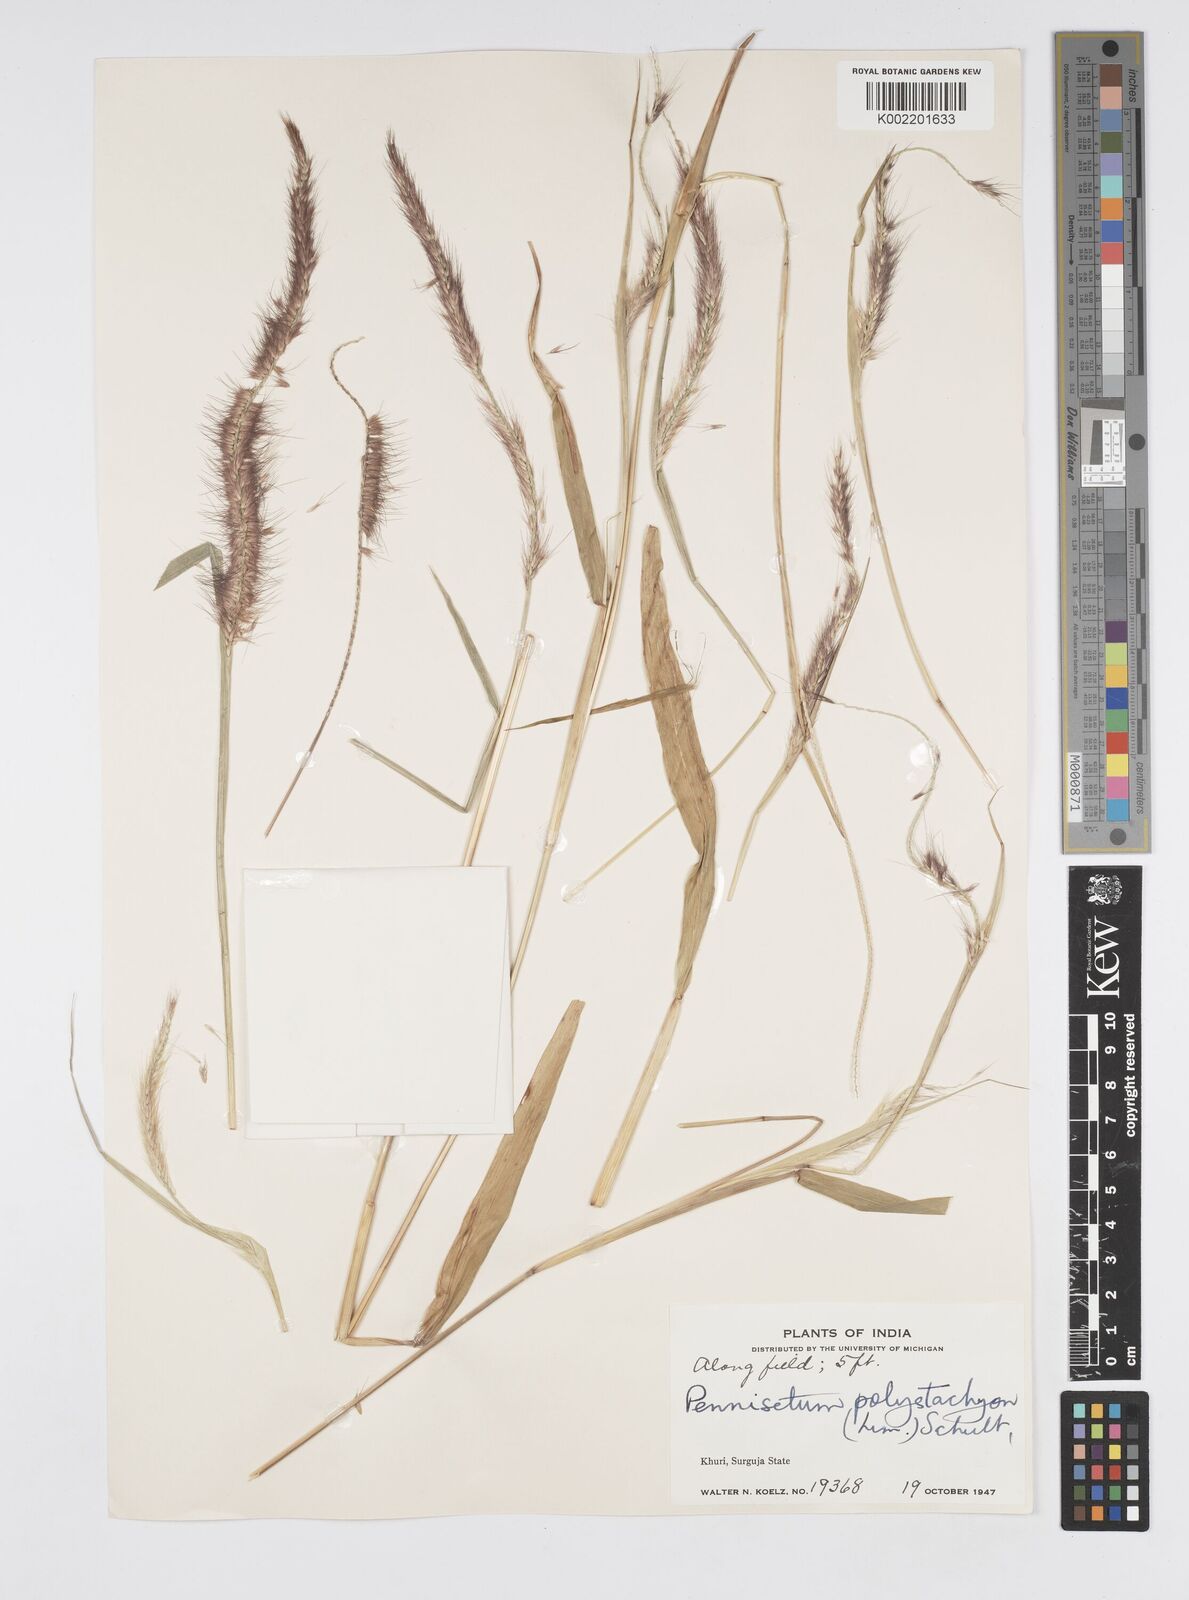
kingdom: Plantae
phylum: Tracheophyta
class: Liliopsida
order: Poales
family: Poaceae
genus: Setaria
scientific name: Setaria parviflora
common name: Knotroot bristle-grass
